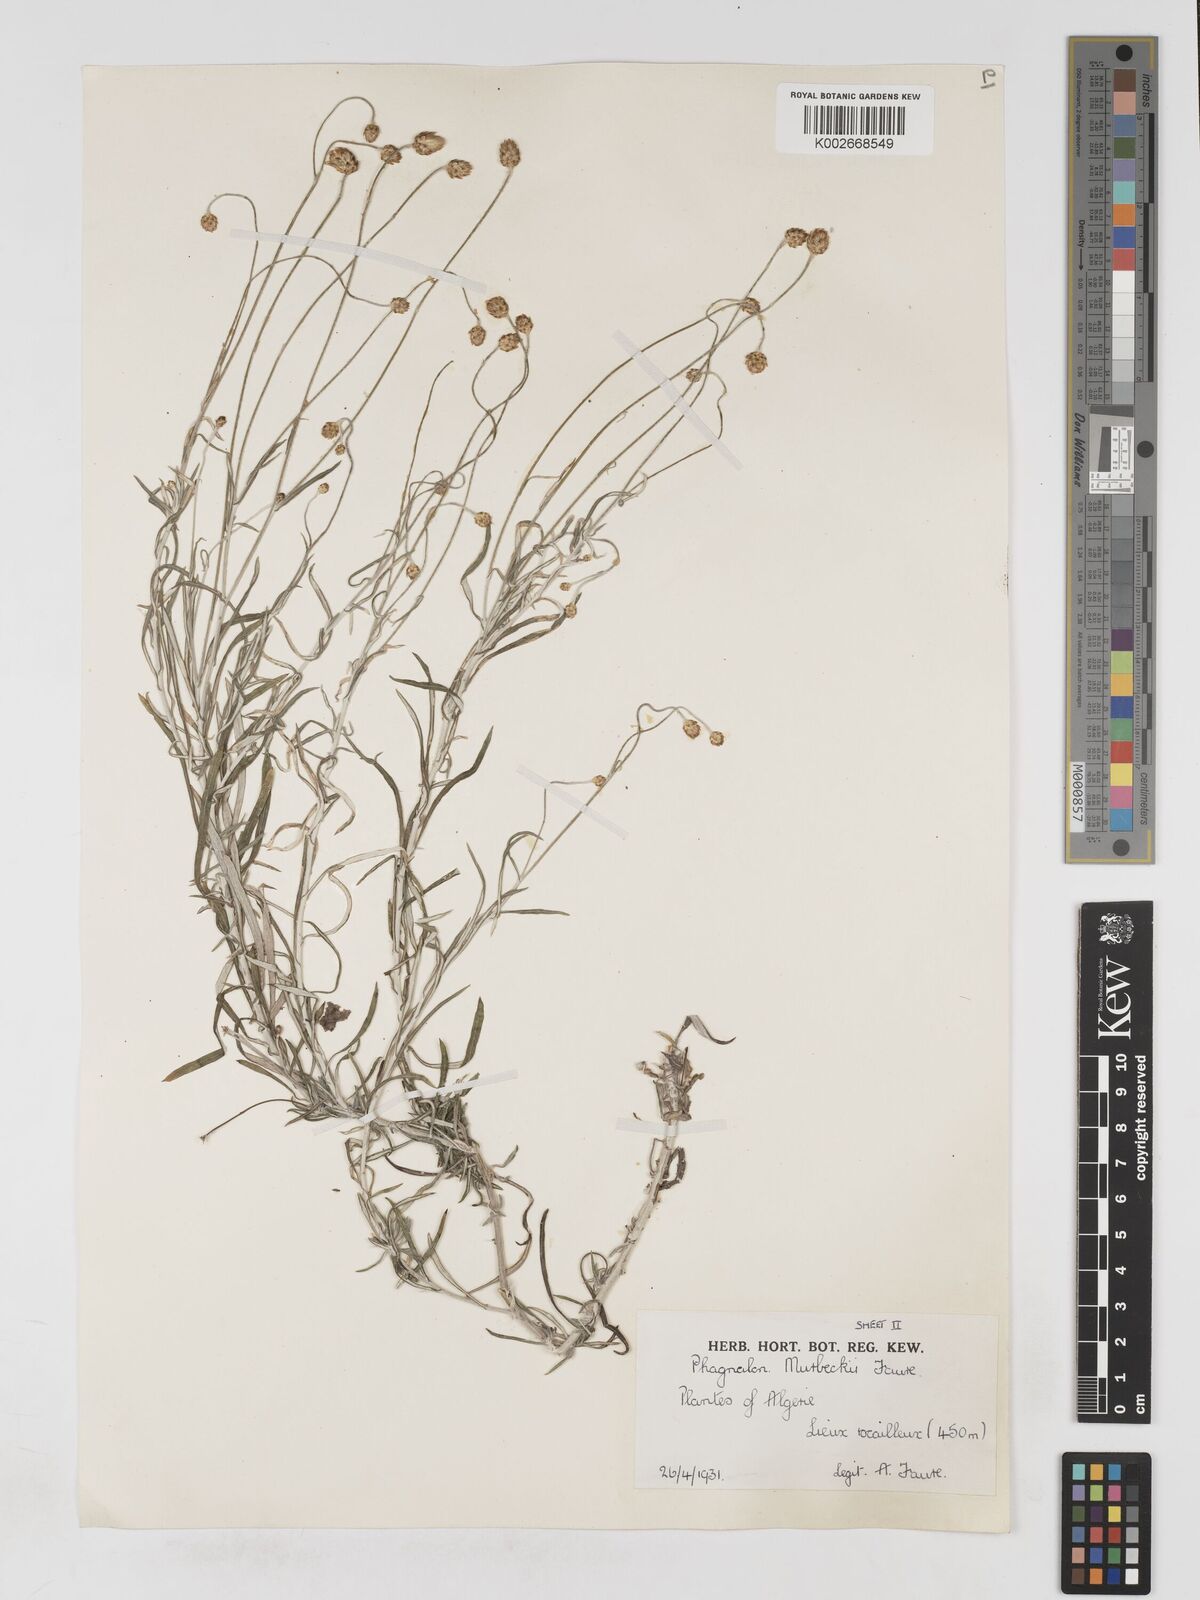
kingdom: Plantae
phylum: Tracheophyta
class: Magnoliopsida
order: Asterales
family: Asteraceae
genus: Phagnalon
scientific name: Phagnalon murbeckii
